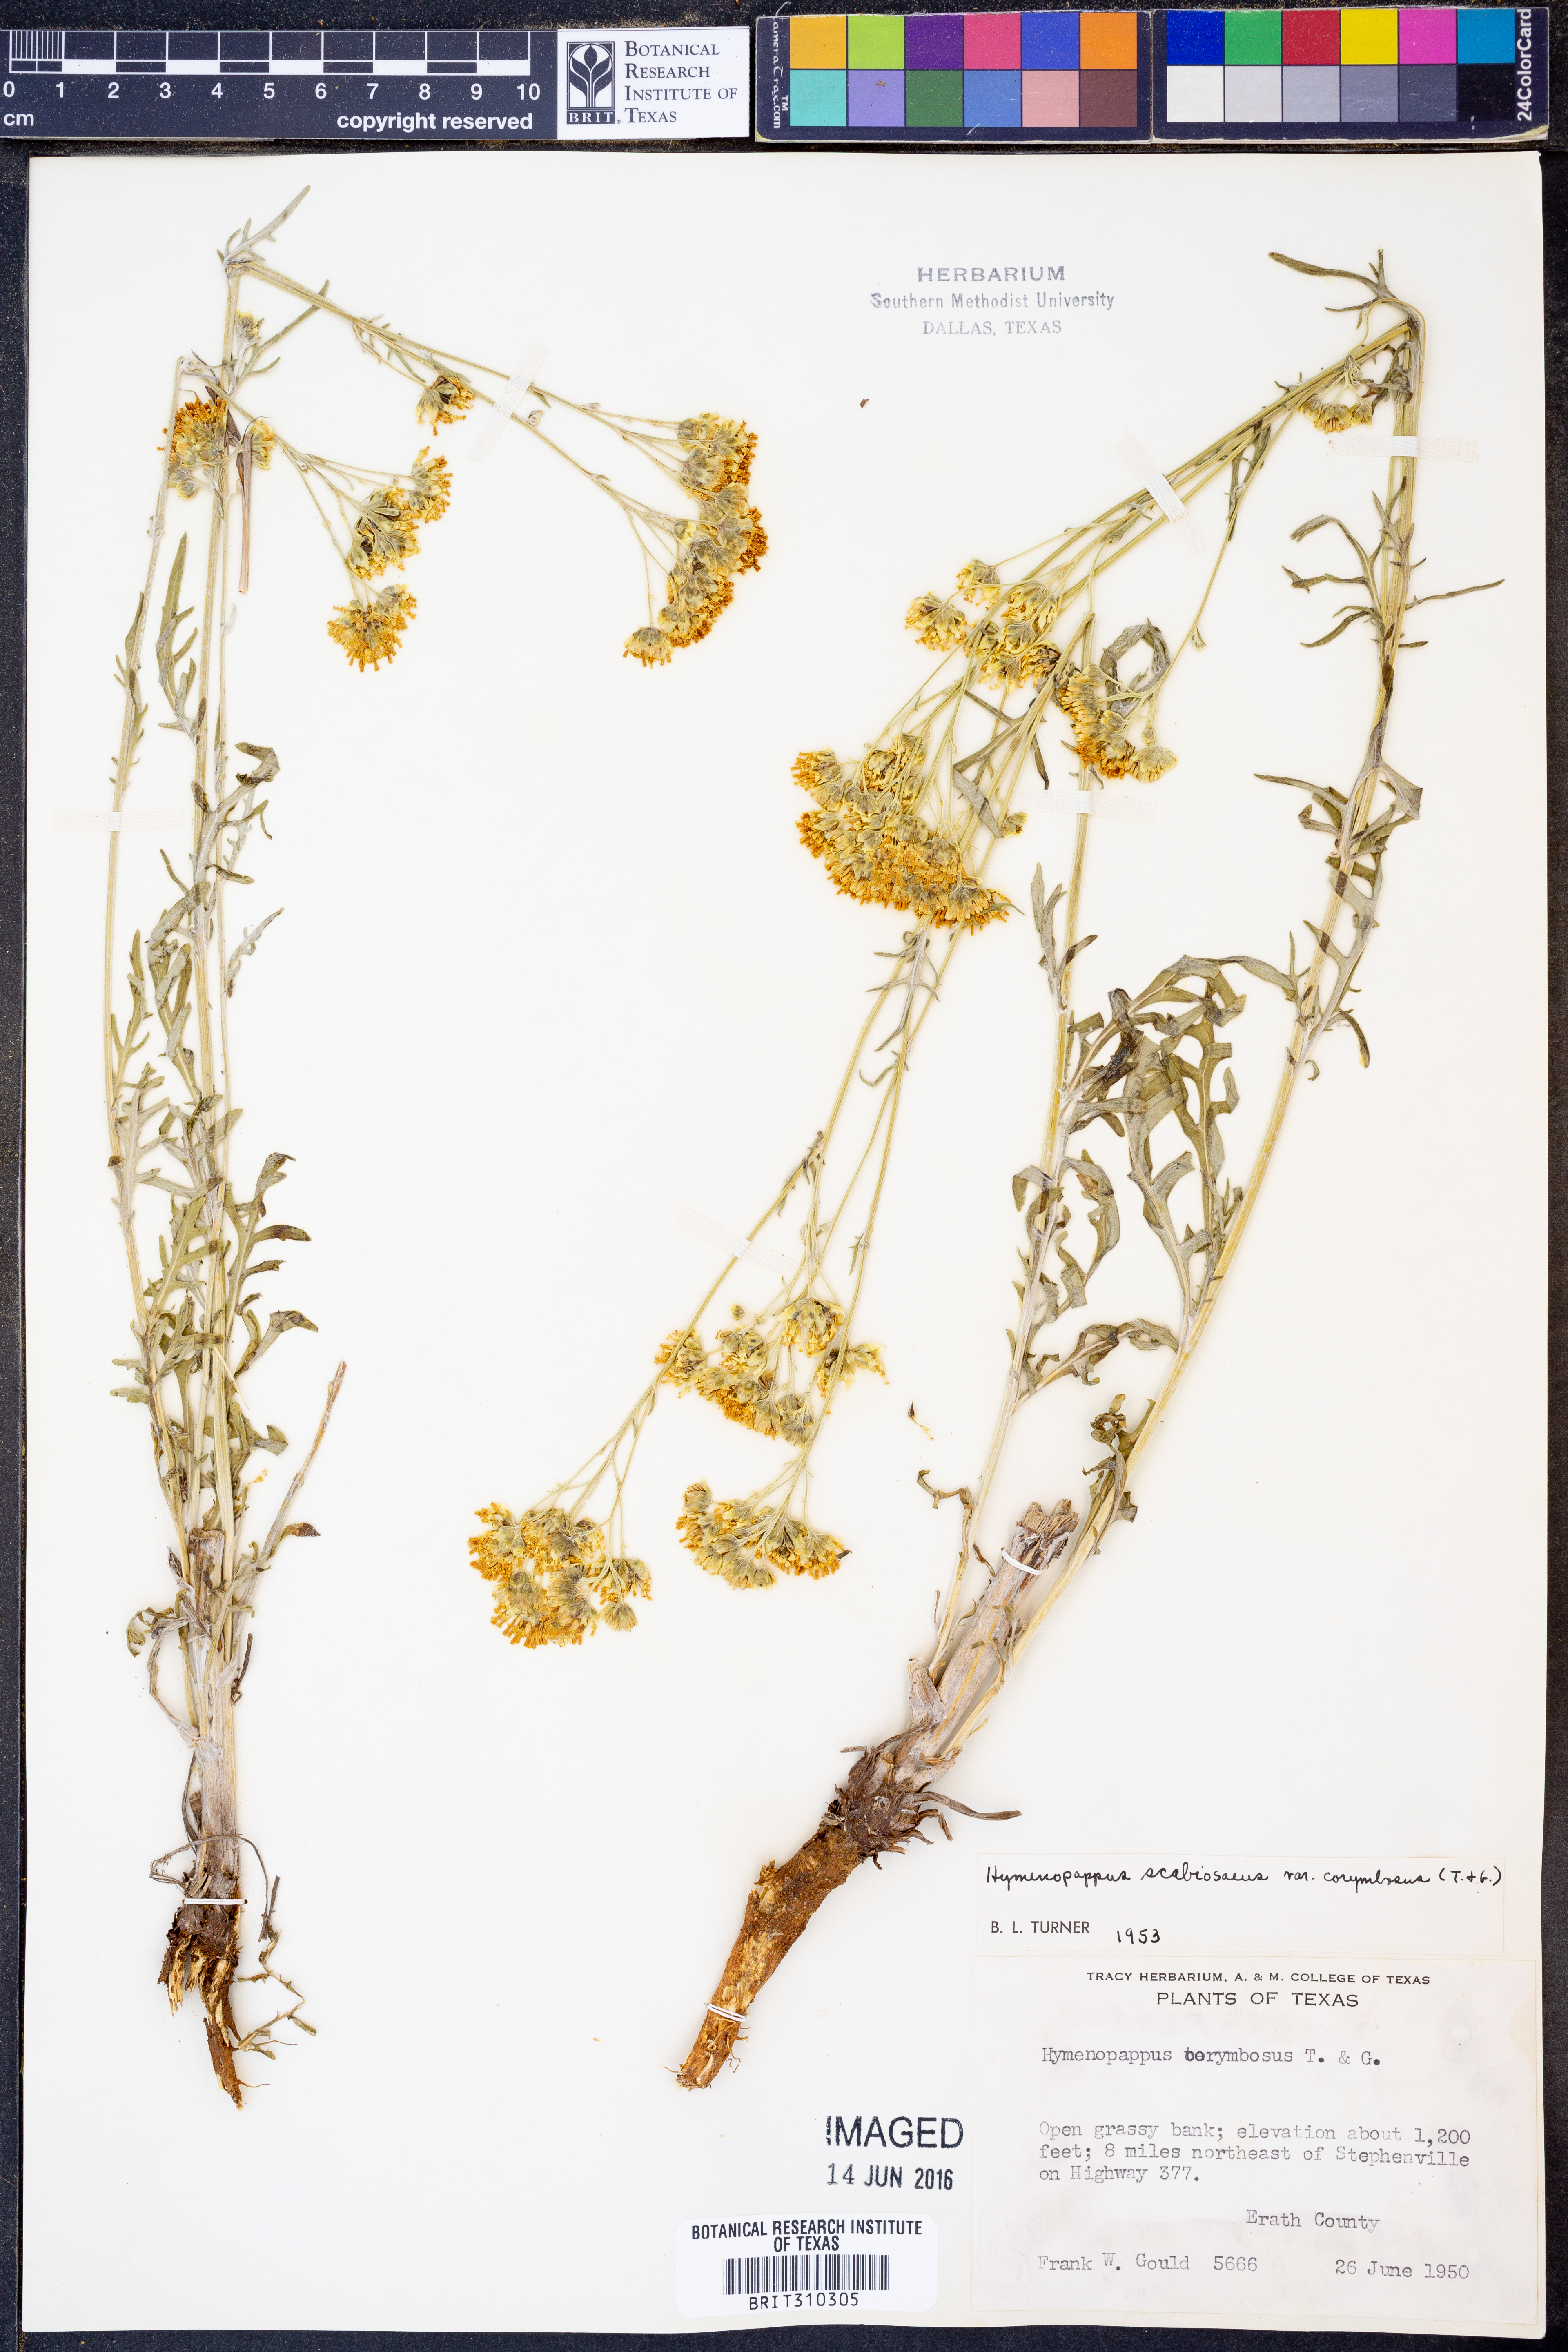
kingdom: Plantae
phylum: Tracheophyta
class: Magnoliopsida
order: Asterales
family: Asteraceae
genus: Hymenopappus
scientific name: Hymenopappus scabiosaeus
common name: Carolina woollywhite
